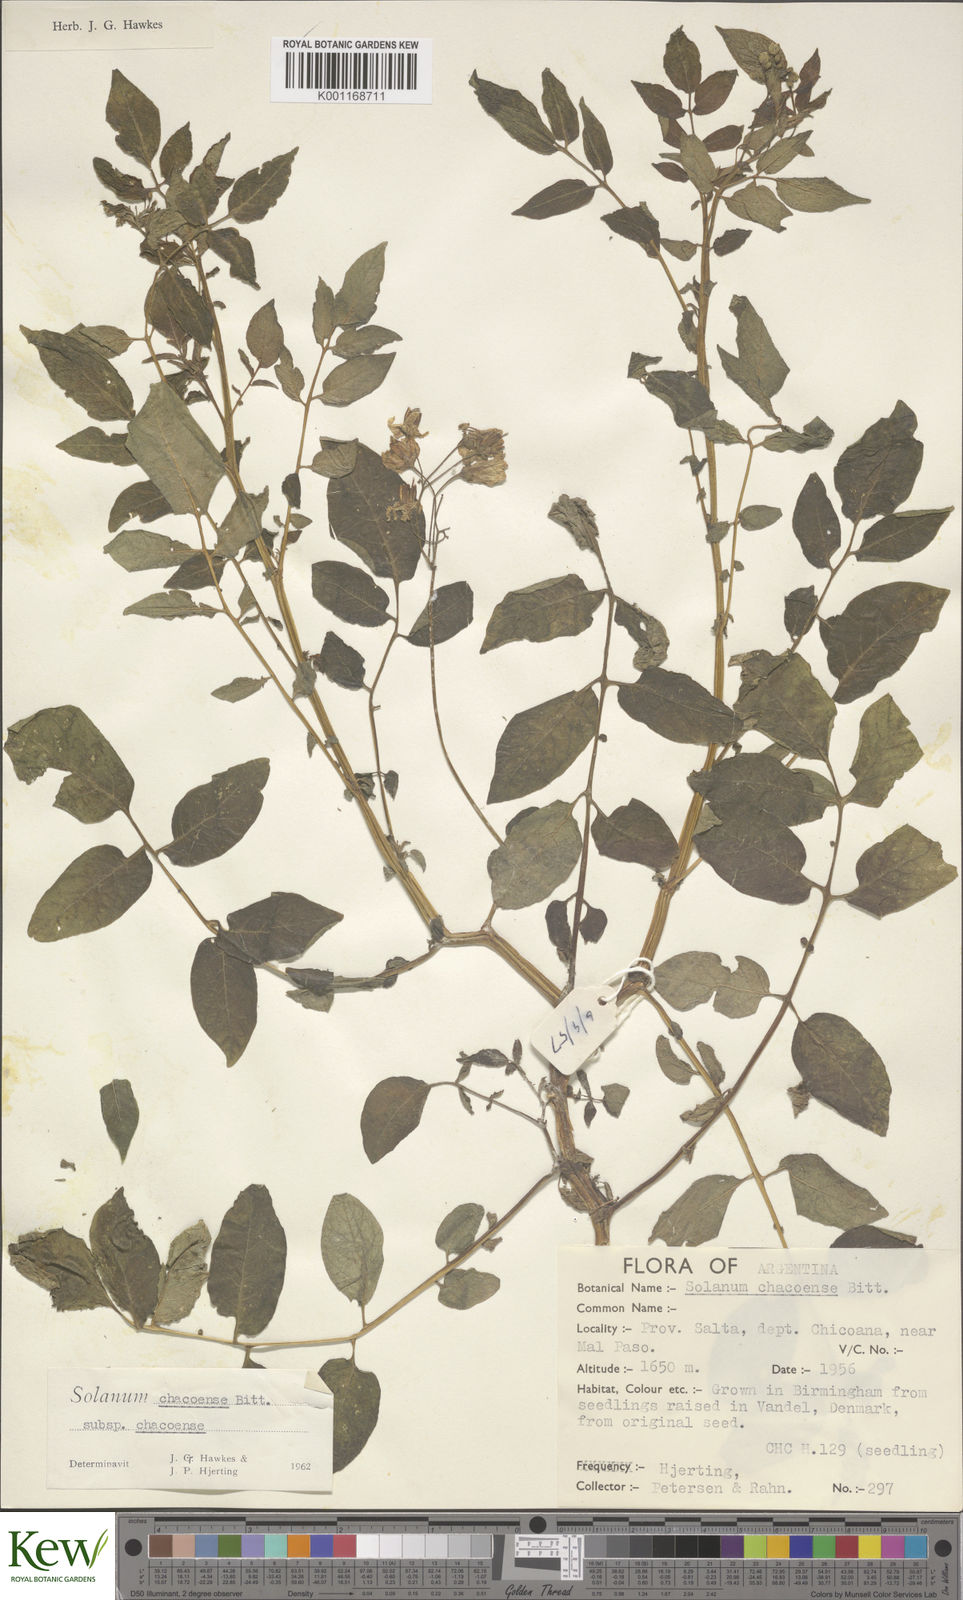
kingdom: Plantae
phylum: Tracheophyta
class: Magnoliopsida
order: Solanales
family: Solanaceae
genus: Solanum
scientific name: Solanum chacoense
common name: Chaco potato
